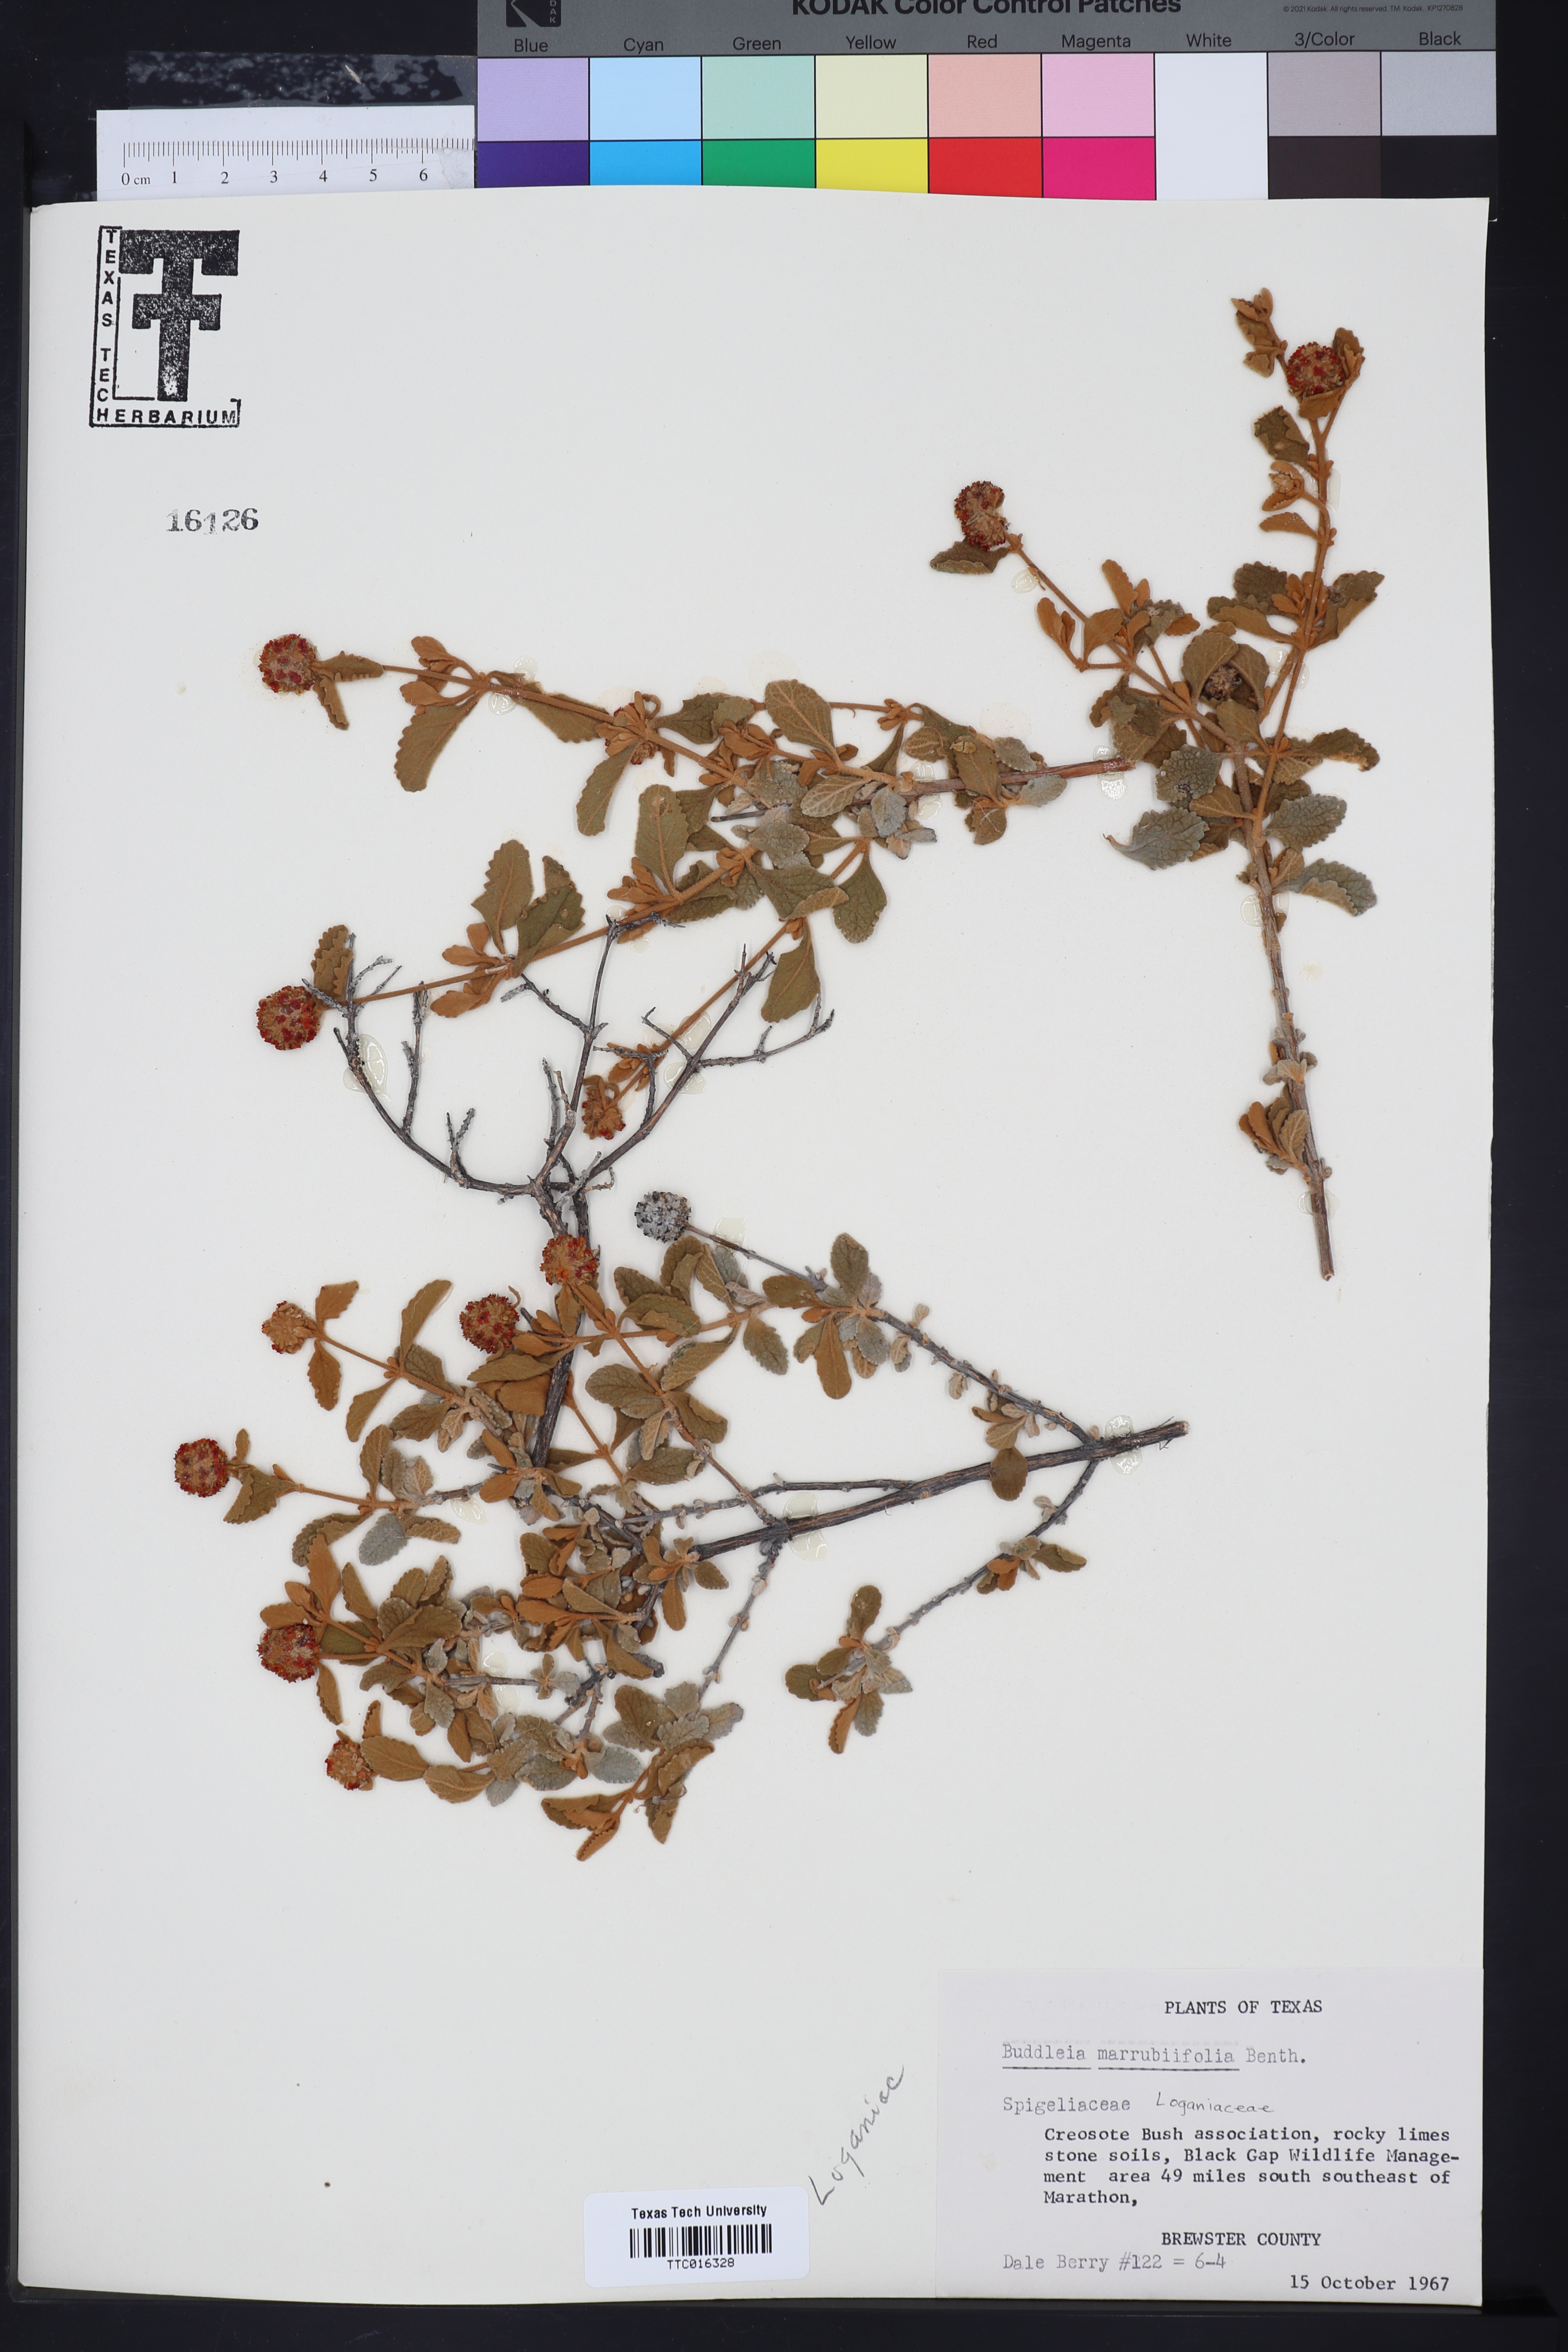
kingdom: Plantae
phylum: Tracheophyta
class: Magnoliopsida
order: Lamiales
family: Scrophulariaceae
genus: Buddleja
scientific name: Buddleja marrubiifolia
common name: Woolly butterfly-bush
